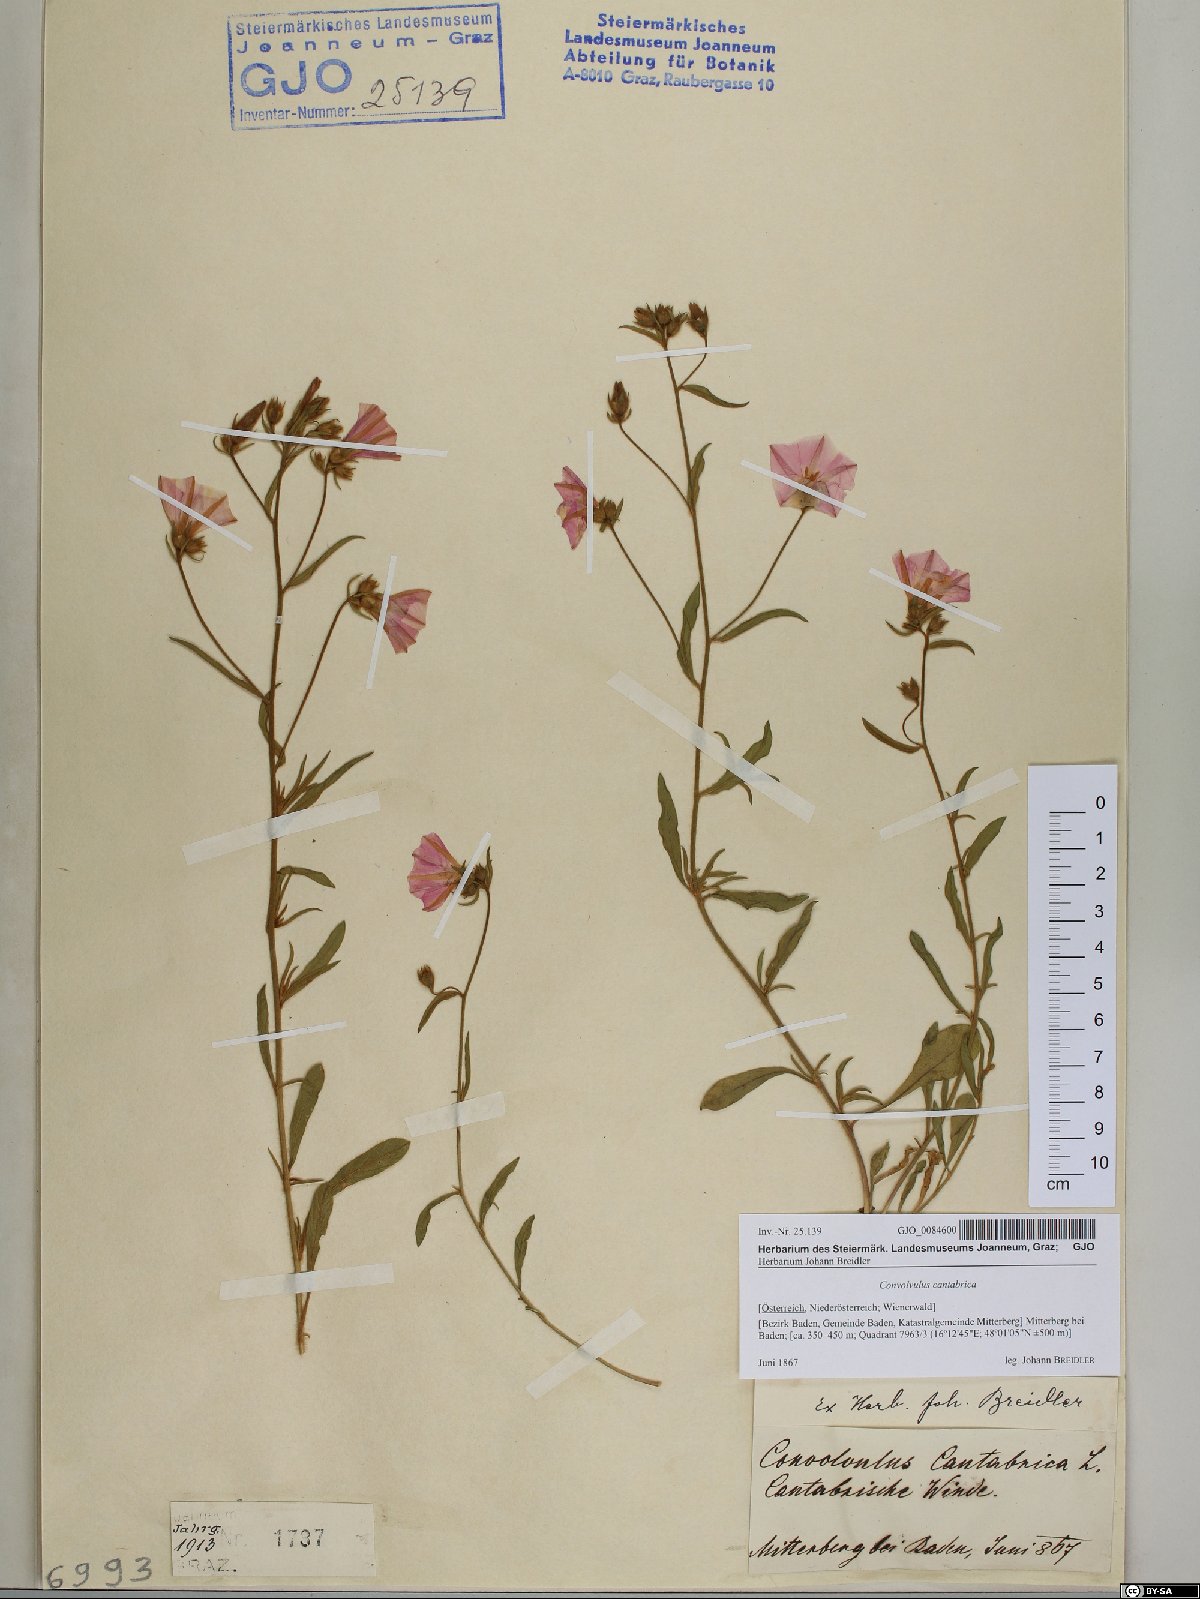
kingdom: Plantae
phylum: Tracheophyta
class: Magnoliopsida
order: Solanales
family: Convolvulaceae
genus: Convolvulus
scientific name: Convolvulus cantabrica
